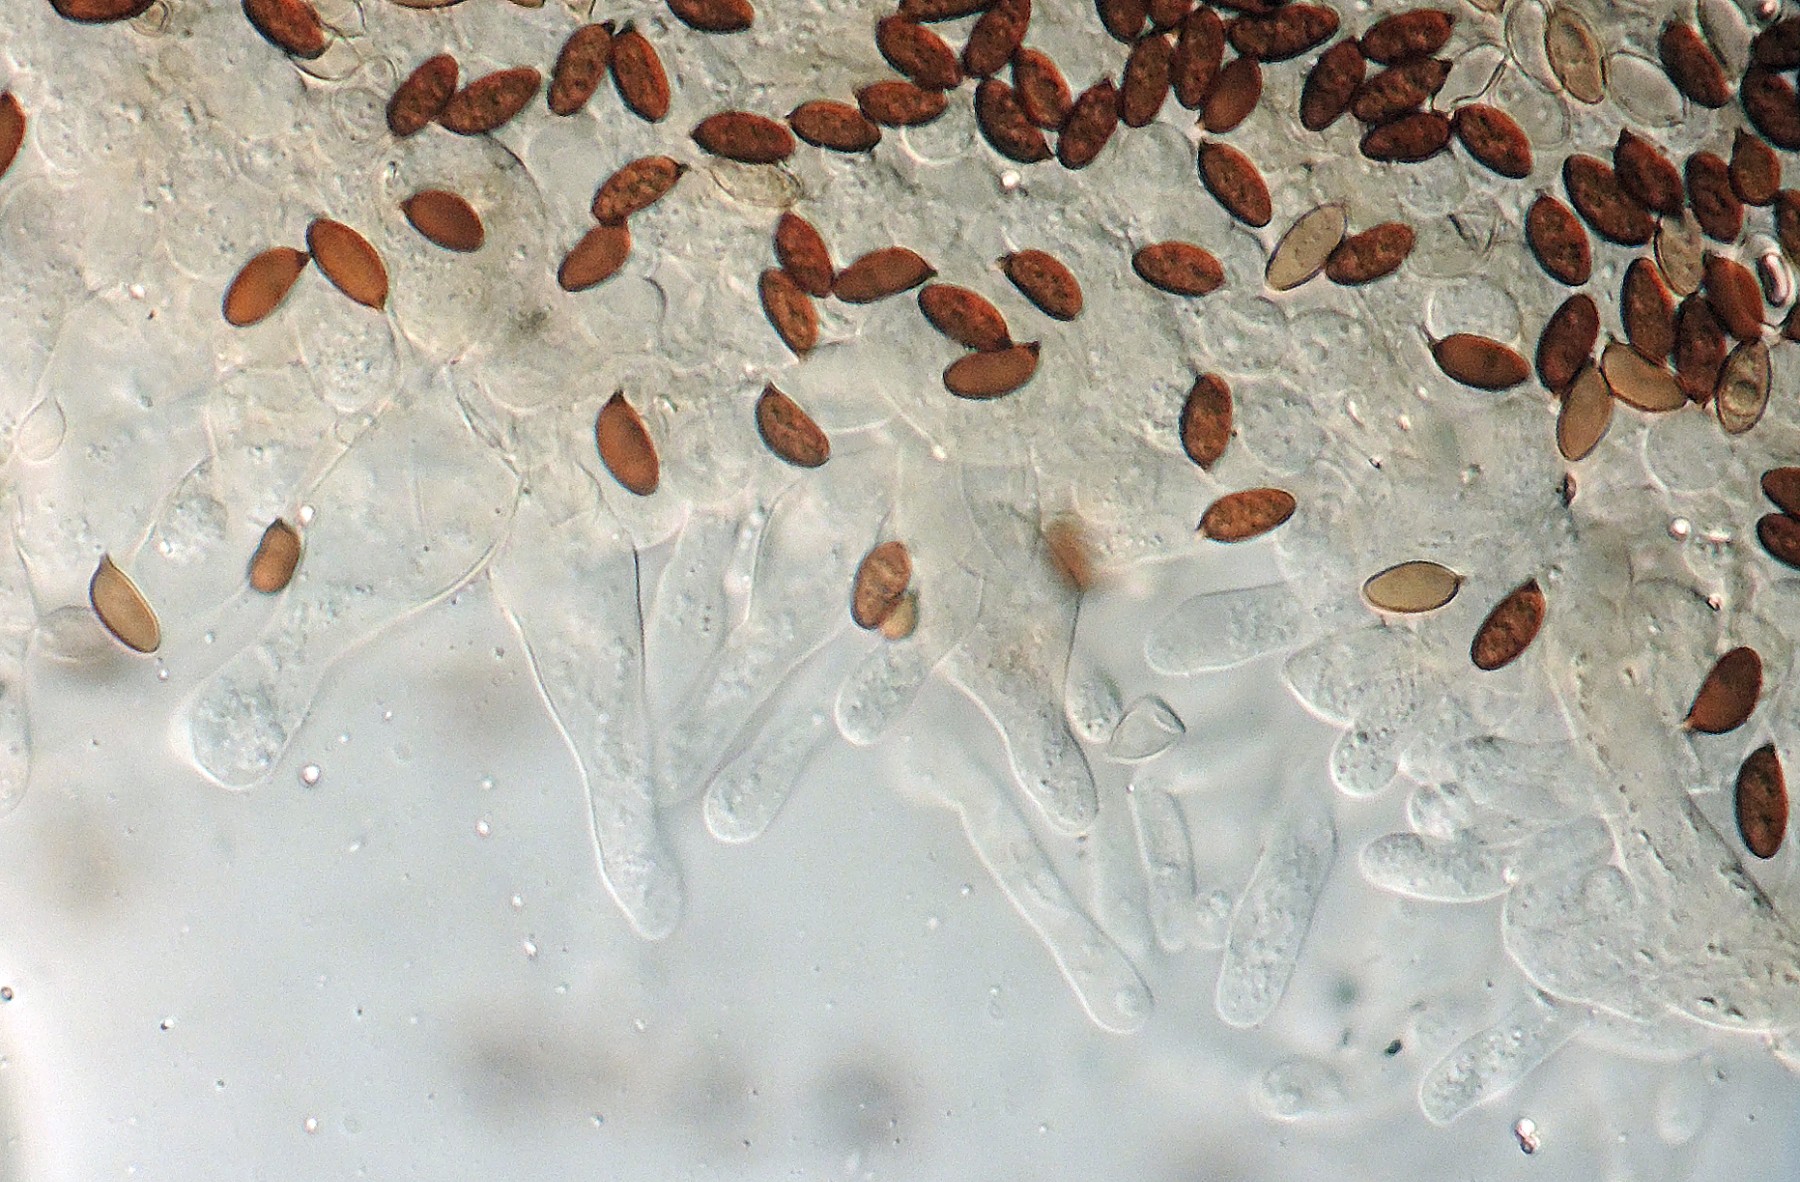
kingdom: Fungi
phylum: Basidiomycota
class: Agaricomycetes
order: Agaricales
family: Psathyrellaceae
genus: Psathyrella
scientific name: Psathyrella caput-medusae
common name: medusa-mørkhat
